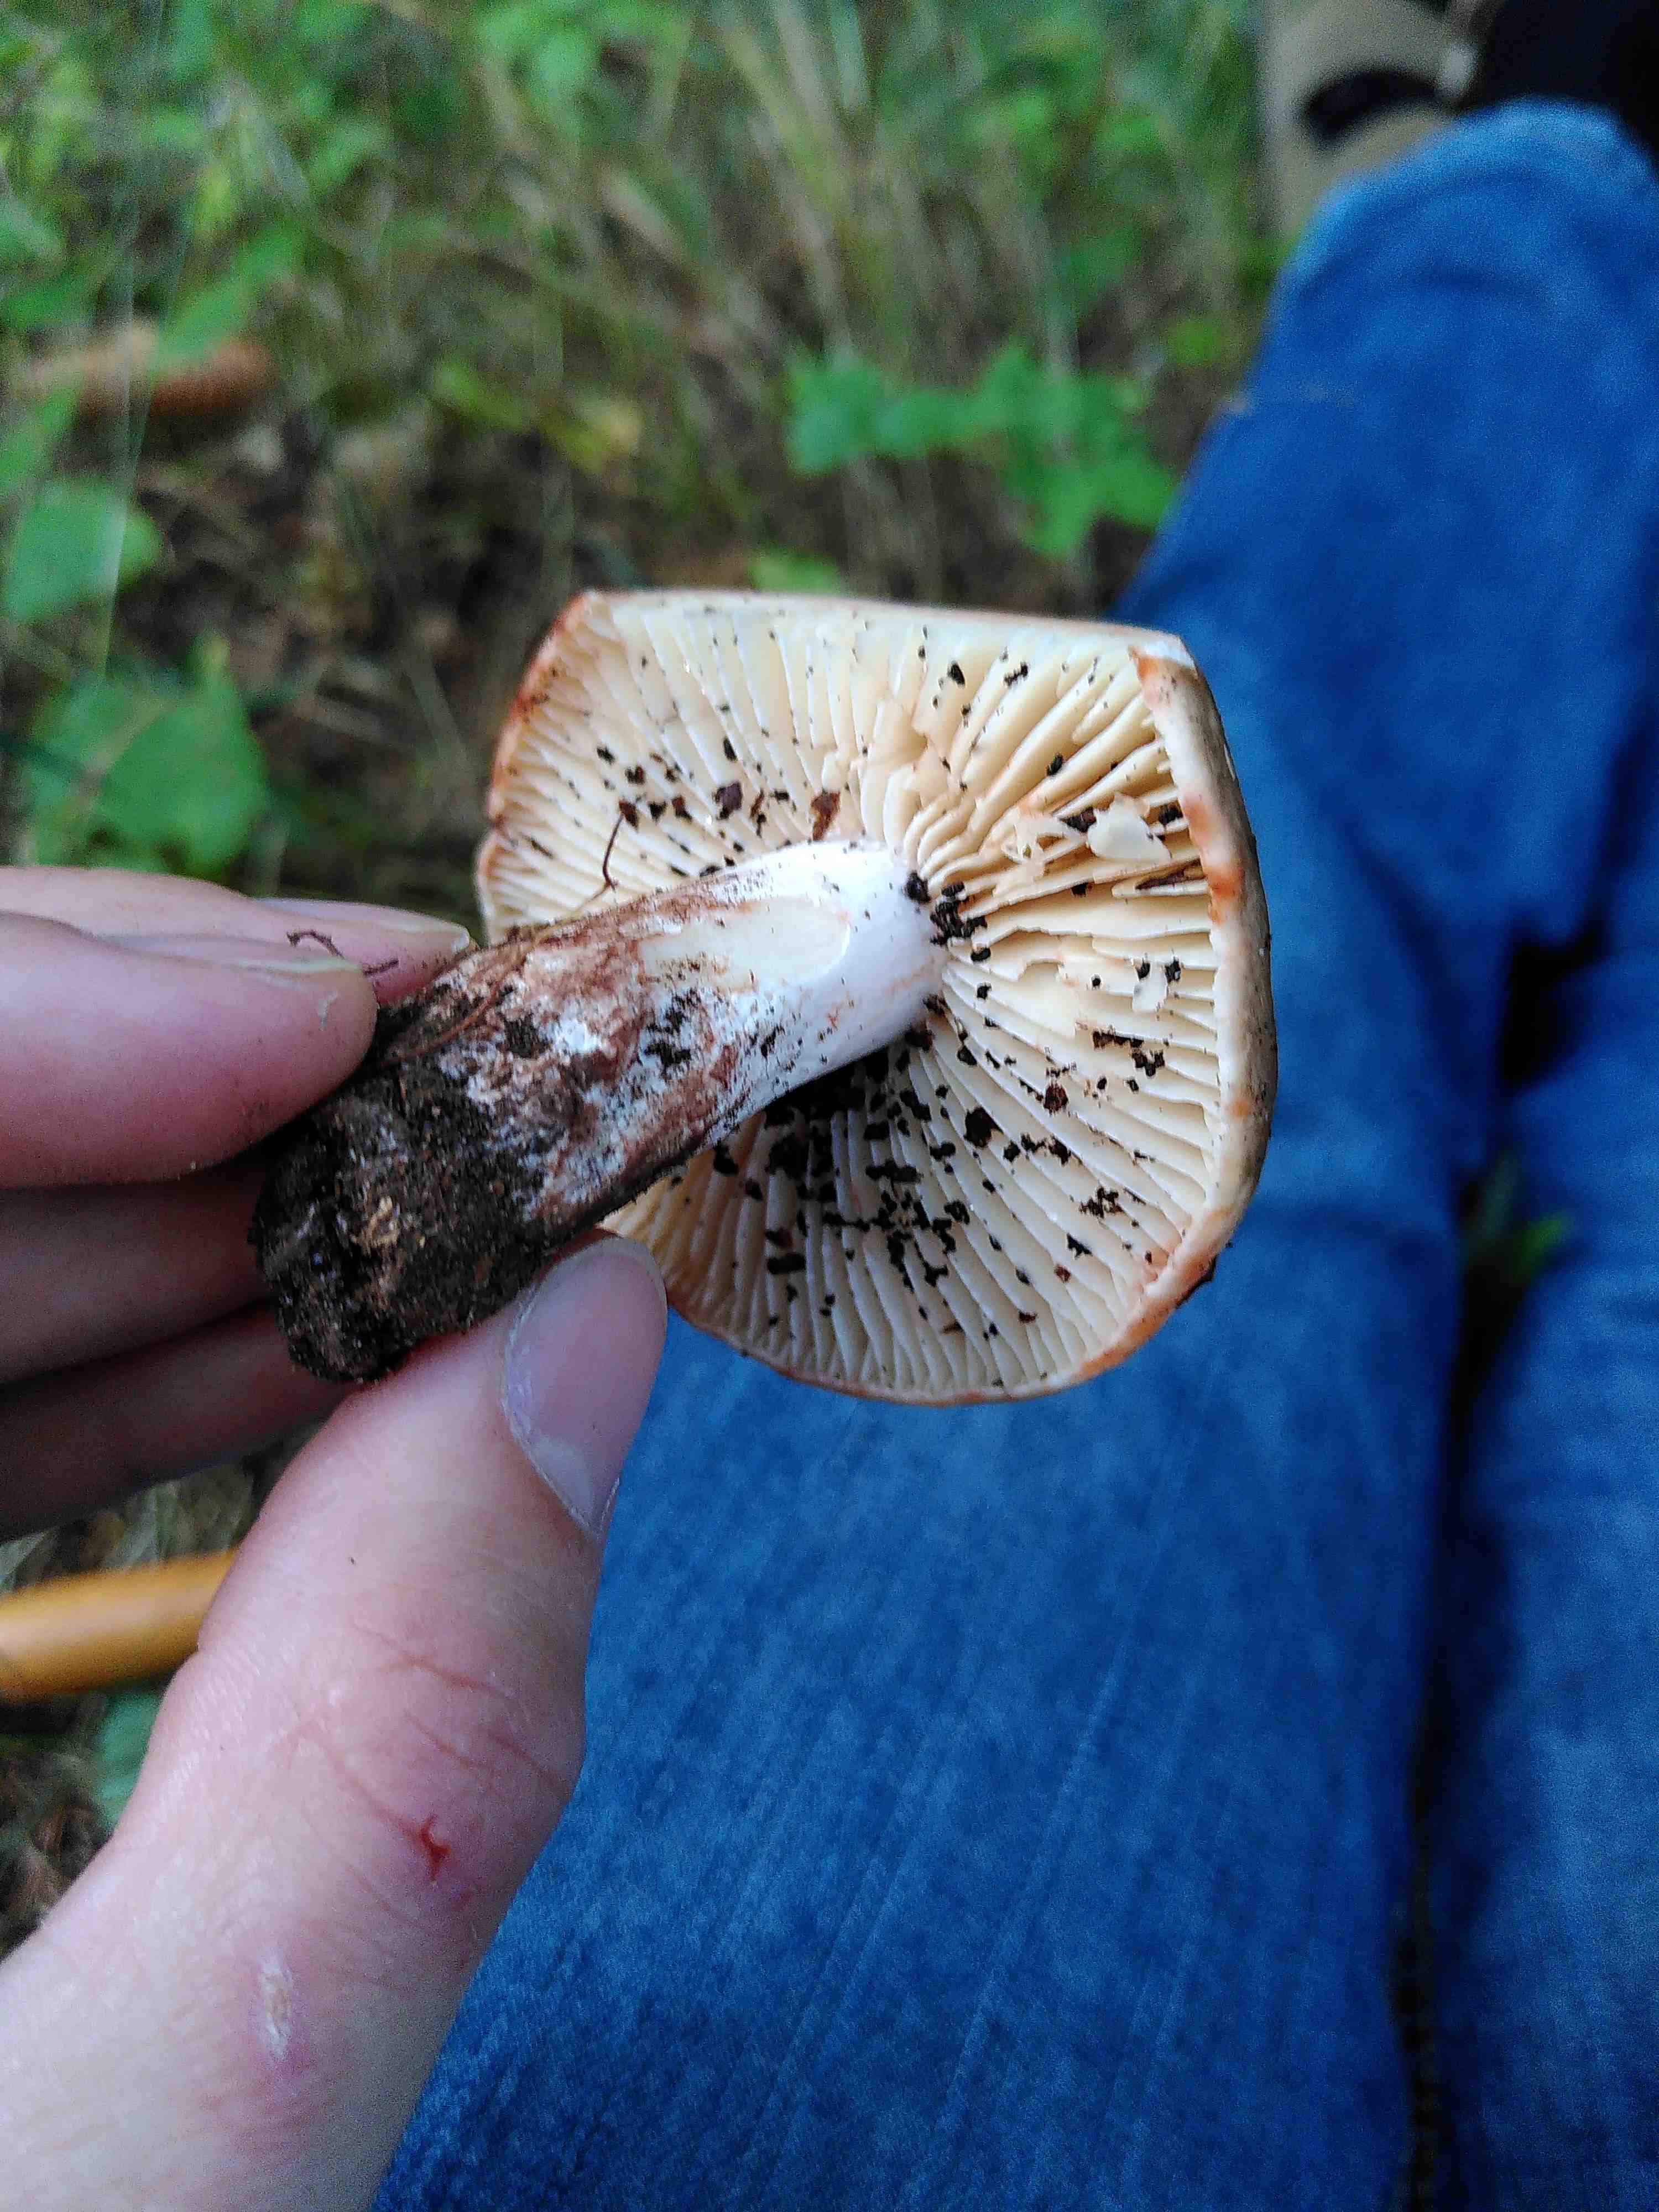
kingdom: Fungi
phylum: Basidiomycota
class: Agaricomycetes
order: Russulales
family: Russulaceae
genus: Russula
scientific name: Russula adusta
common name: sværtende skørhat
